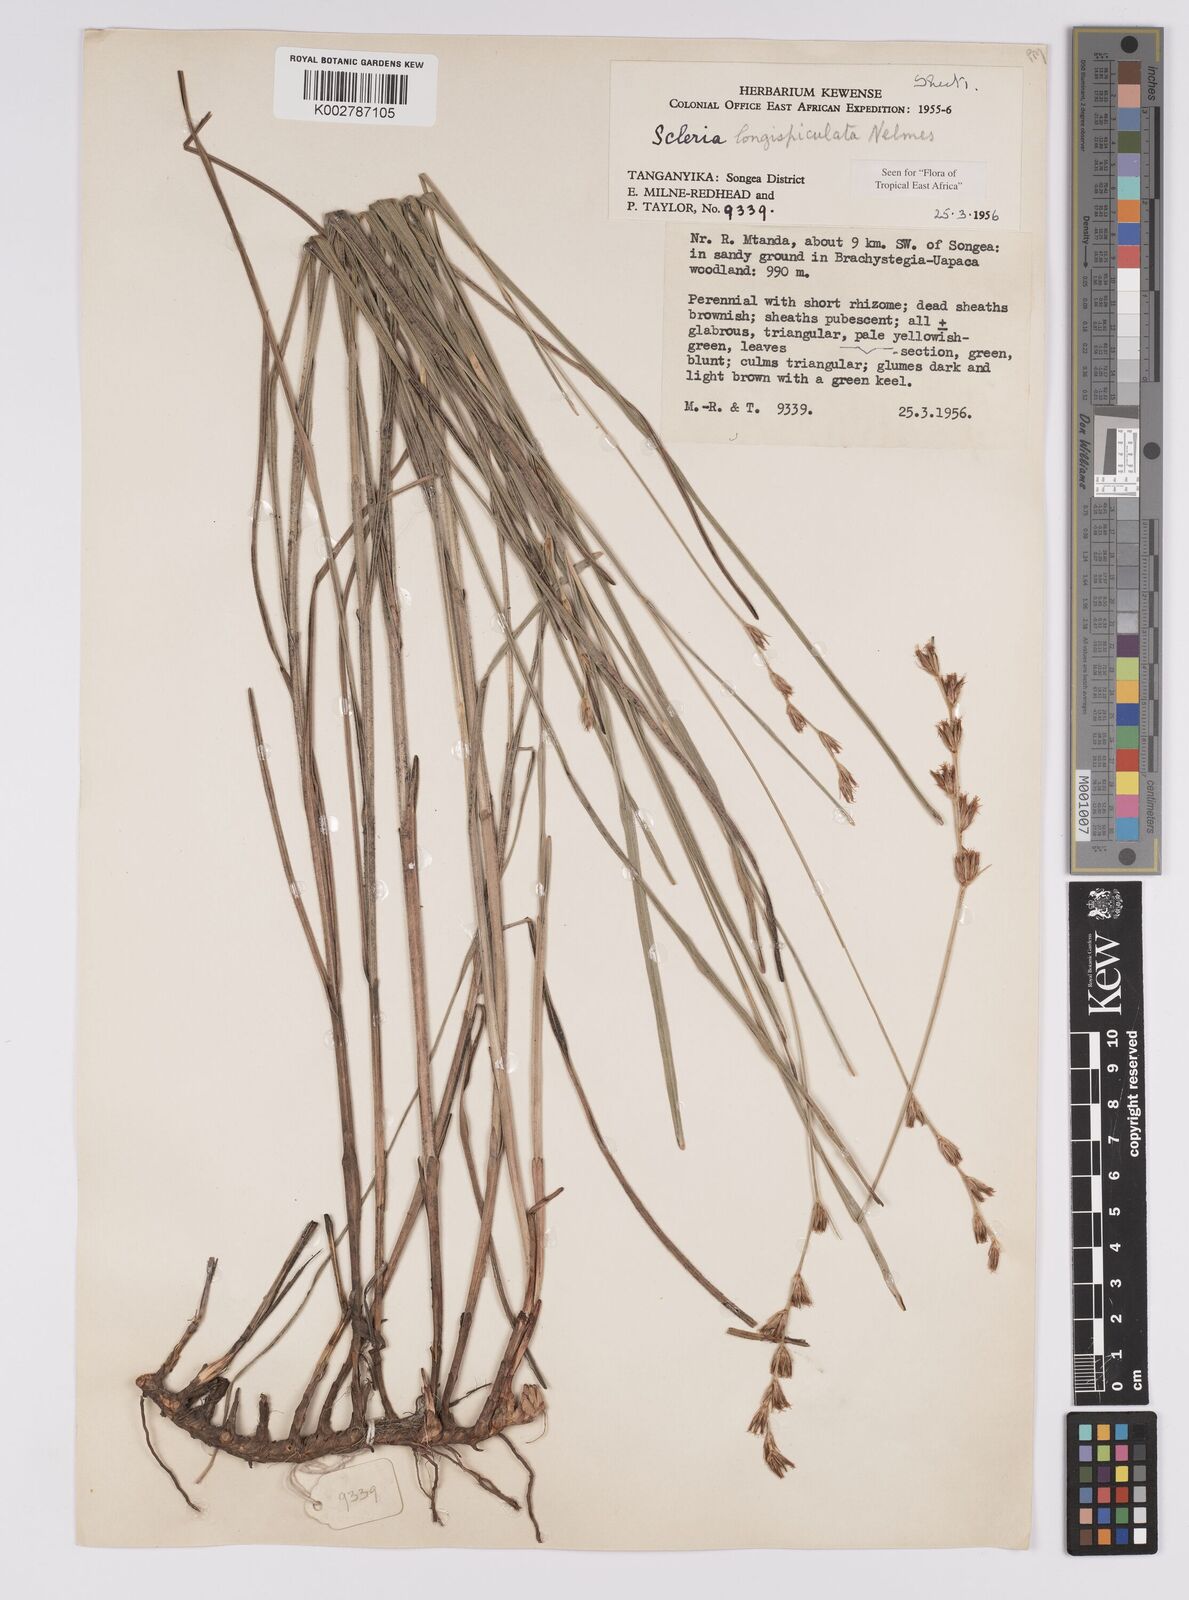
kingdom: Plantae
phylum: Tracheophyta
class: Liliopsida
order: Poales
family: Cyperaceae
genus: Scleria
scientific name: Scleria longispiculata
